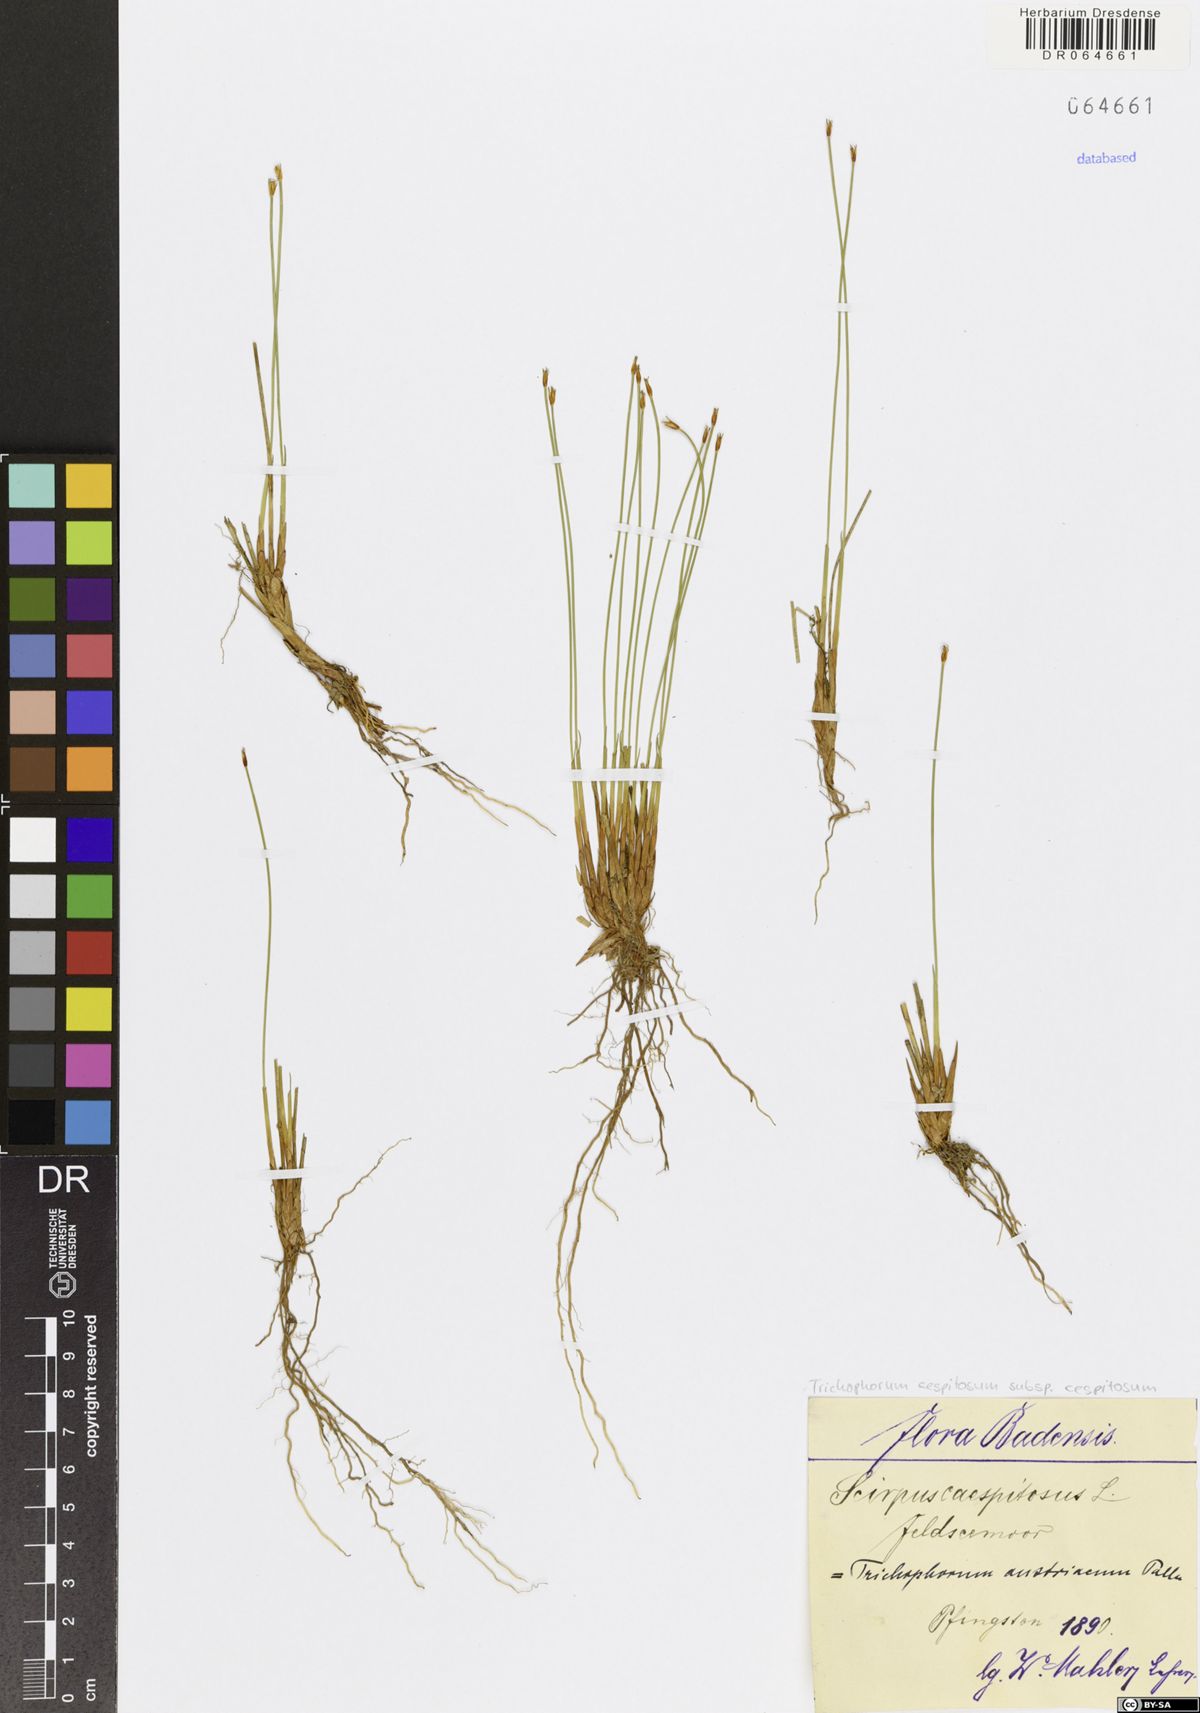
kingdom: Plantae
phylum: Tracheophyta
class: Liliopsida
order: Poales
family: Cyperaceae
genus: Trichophorum
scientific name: Trichophorum cespitosum
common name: Cespitose bulrush
